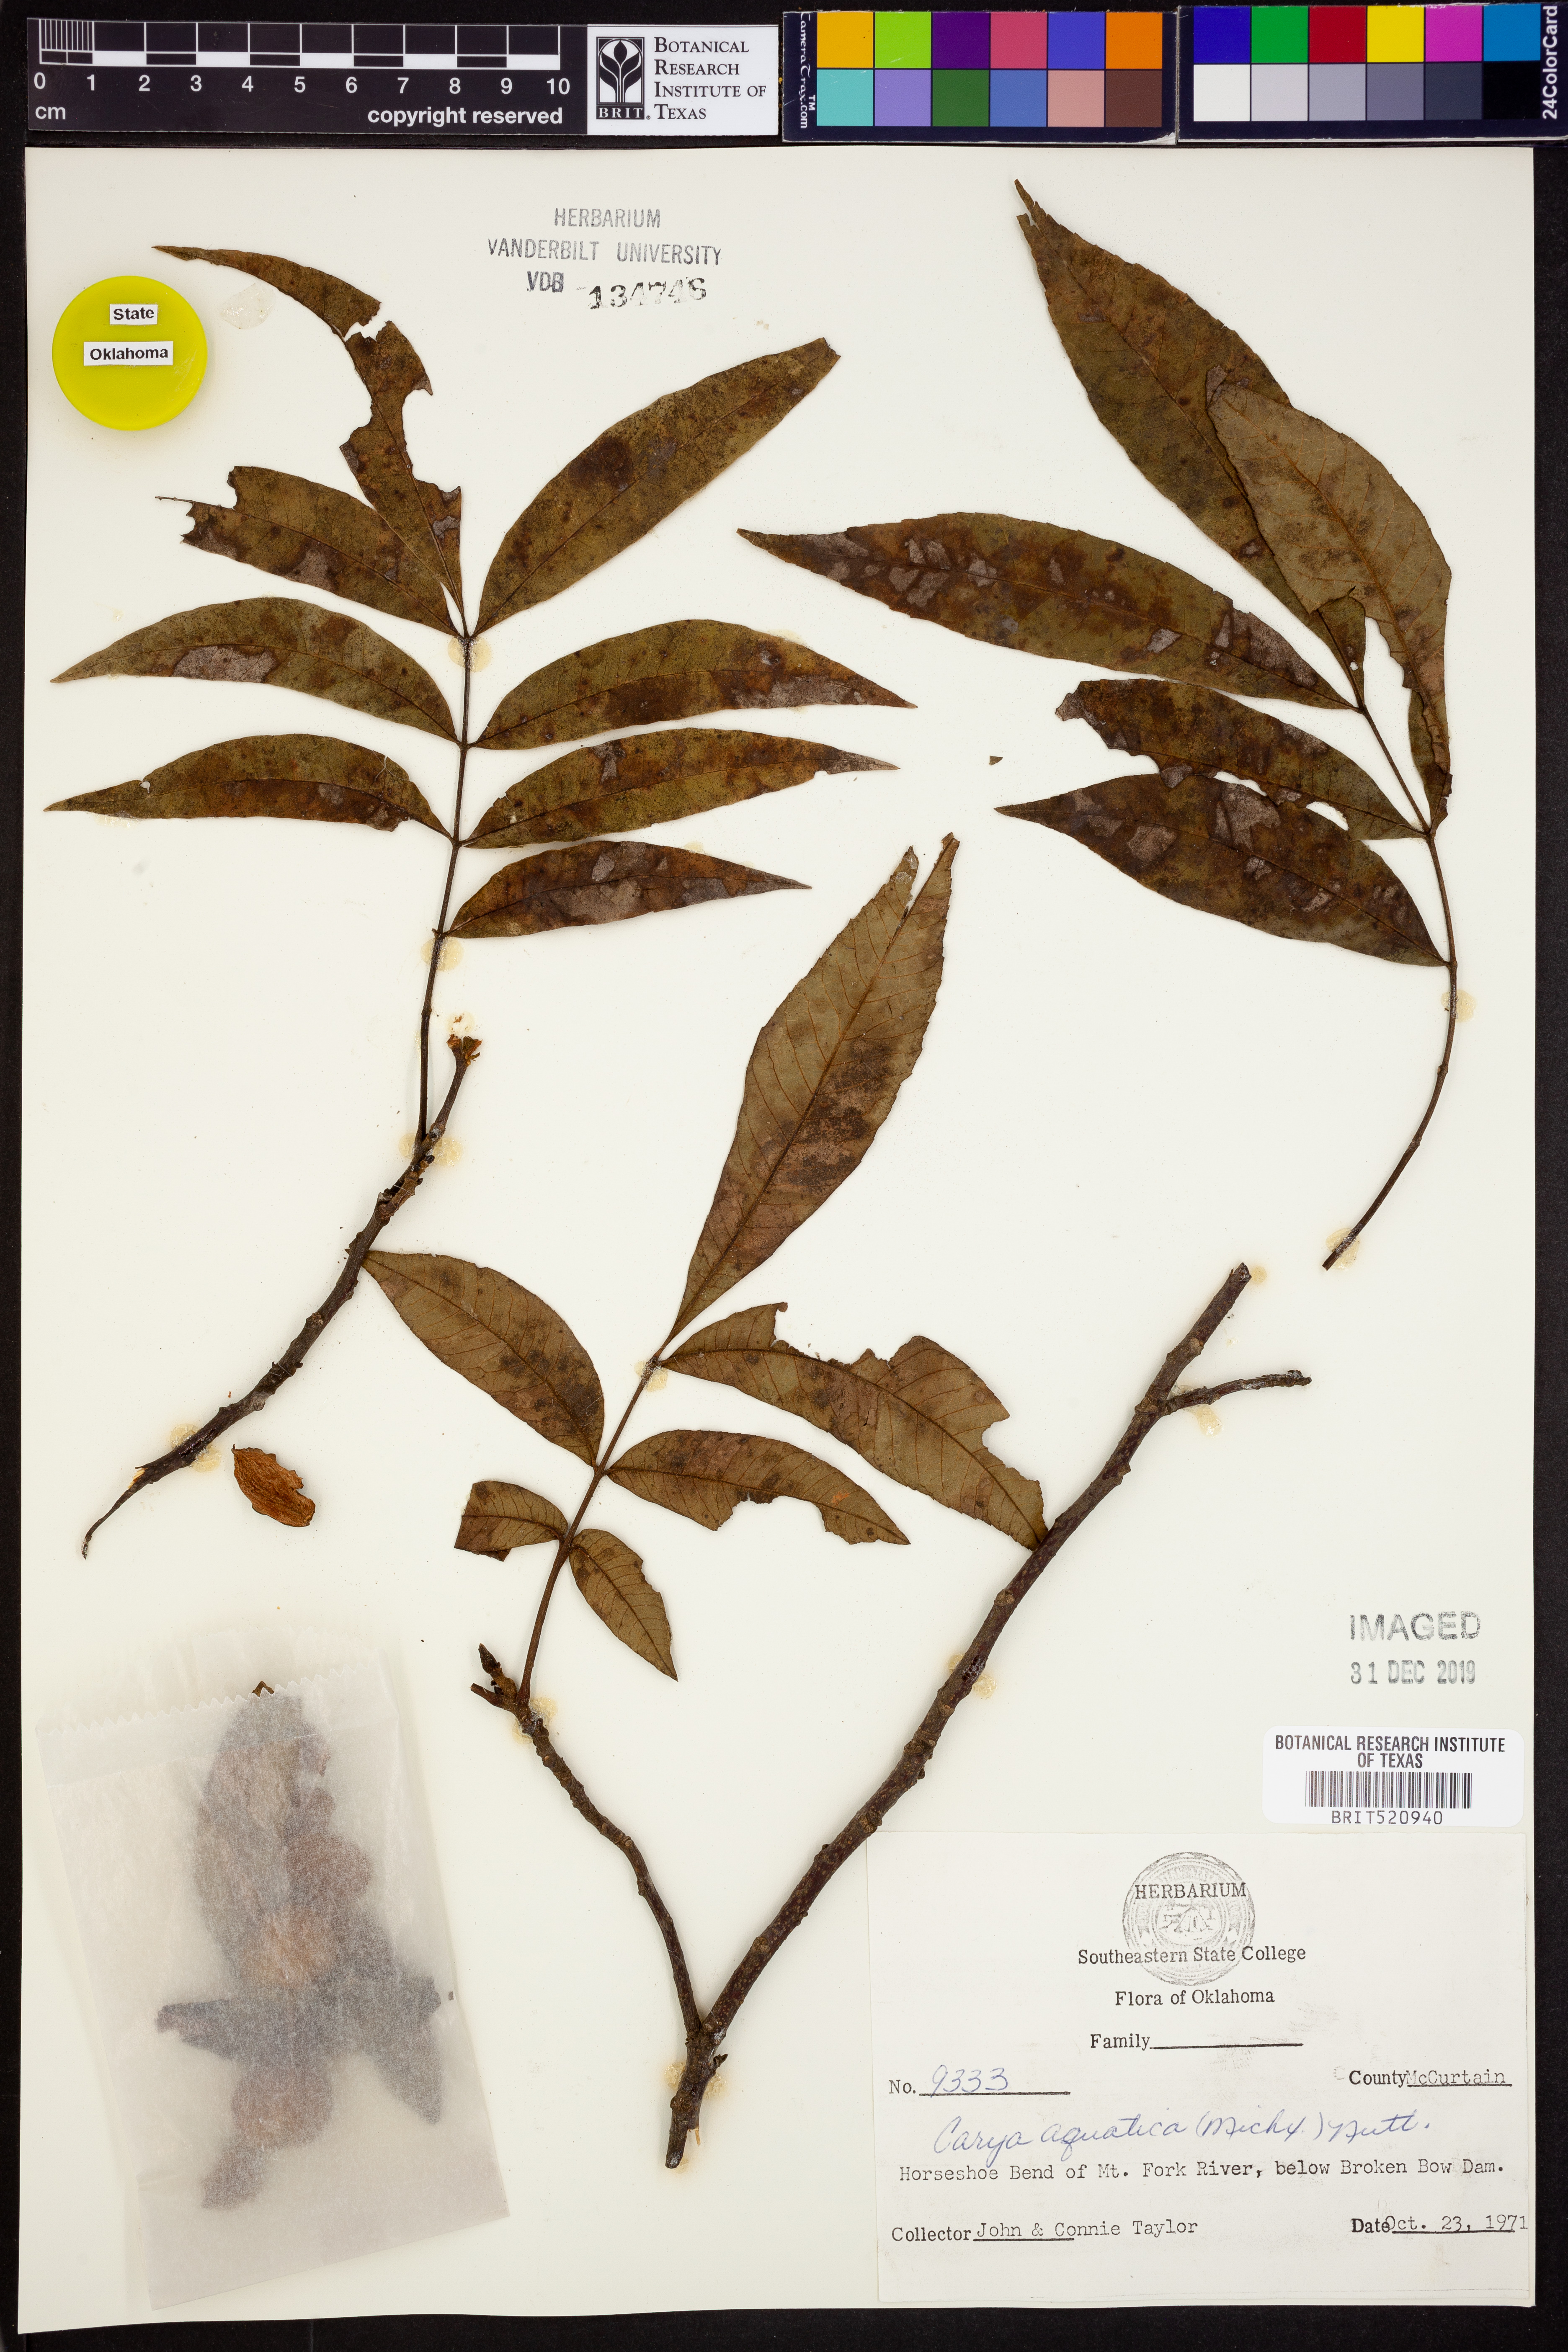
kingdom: Plantae
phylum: Tracheophyta
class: Magnoliopsida
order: Fagales
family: Juglandaceae
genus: Carya
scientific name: Carya aquatica
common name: Water hickory
